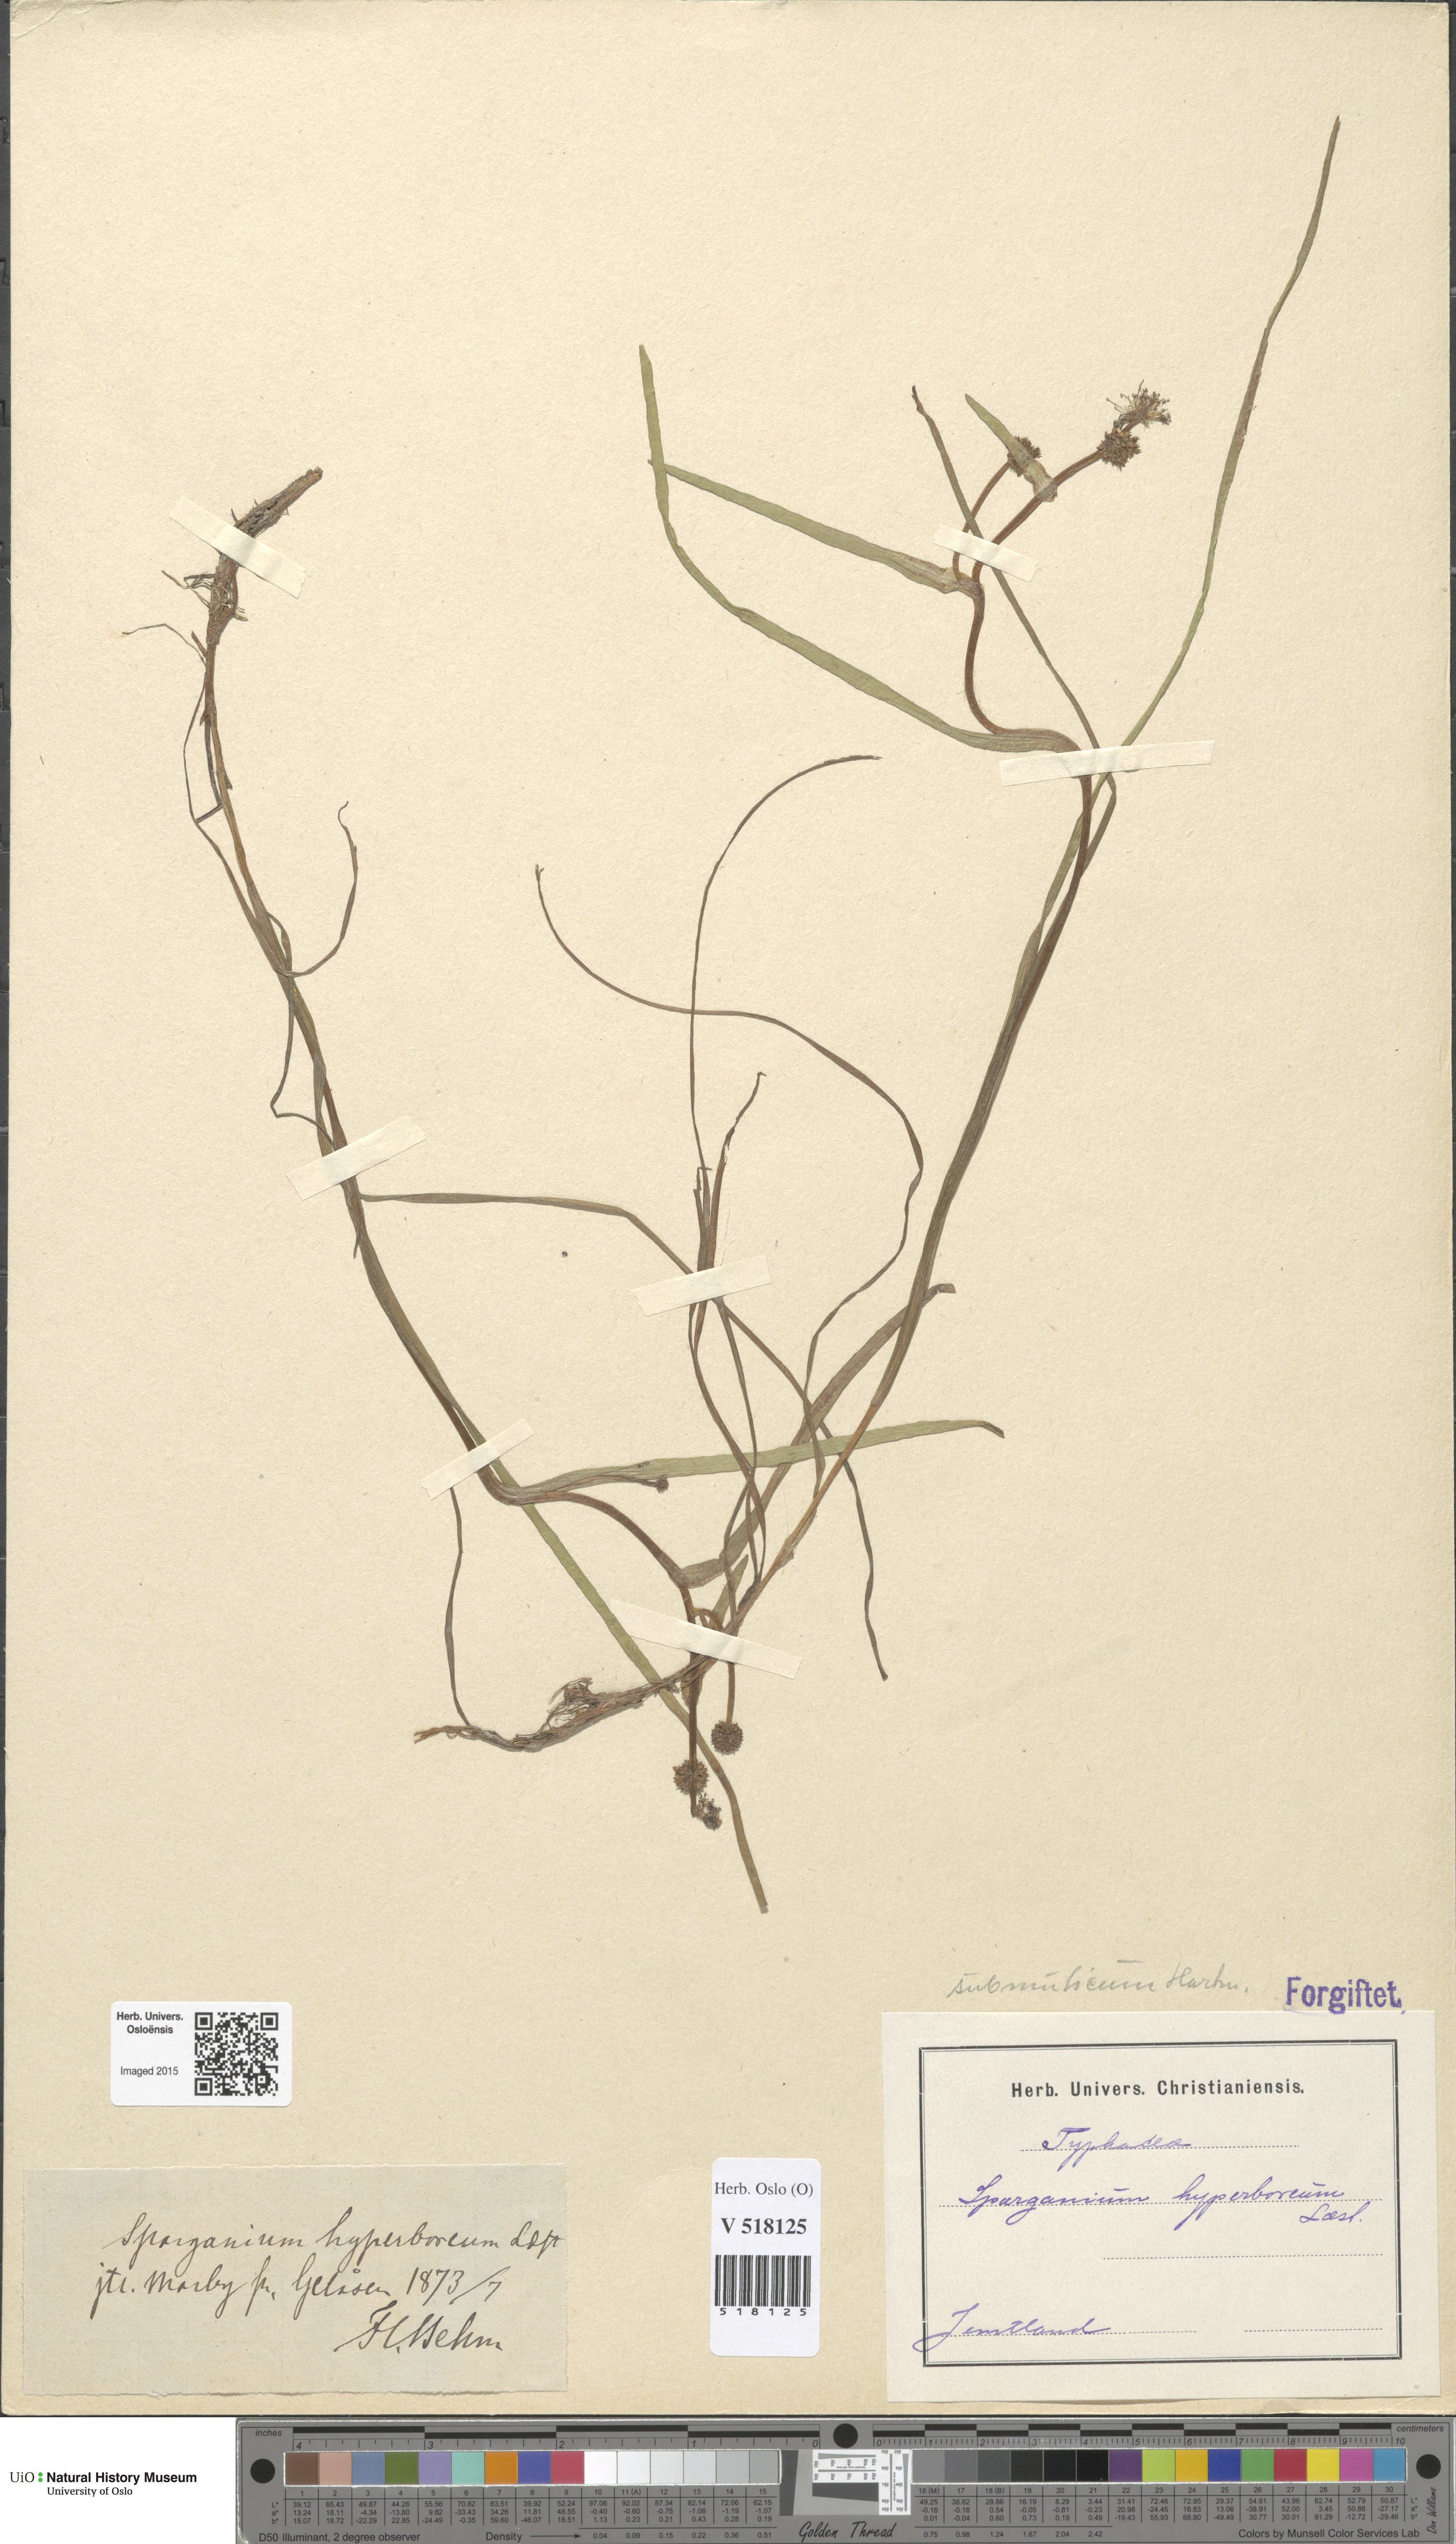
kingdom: Plantae
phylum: Tracheophyta
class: Liliopsida
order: Poales
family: Typhaceae
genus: Sparganium
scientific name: Sparganium hyperboreum
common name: Arctic burreed
